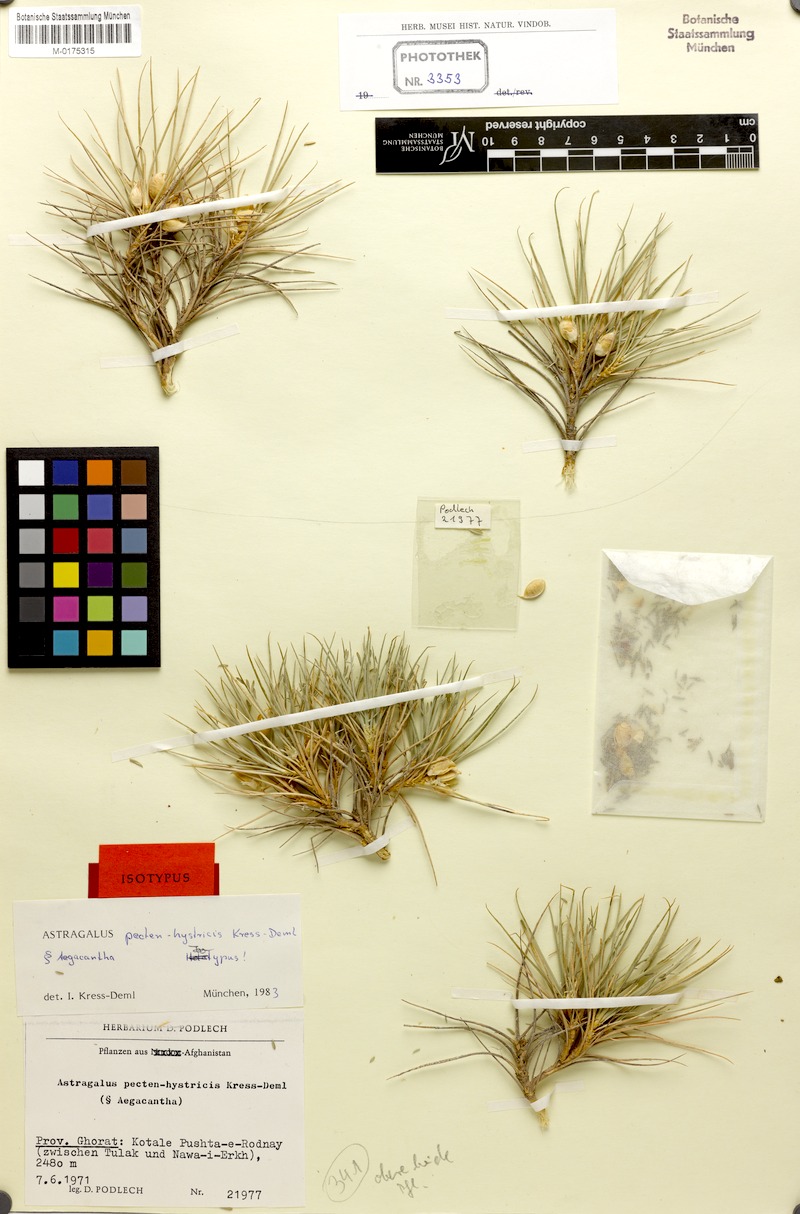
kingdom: Plantae
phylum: Tracheophyta
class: Magnoliopsida
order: Fabales
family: Fabaceae
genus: Astragalus
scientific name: Astragalus pecten-hystricis
